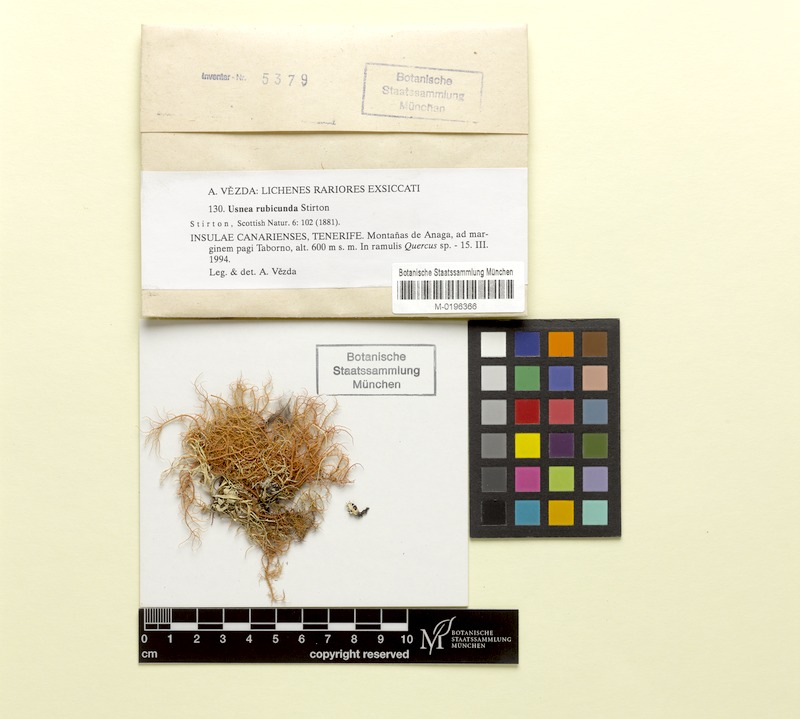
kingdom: Fungi
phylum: Ascomycota
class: Lecanoromycetes
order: Lecanorales
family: Parmeliaceae
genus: Usnea
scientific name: Usnea rubicunda
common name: Red beard lichen
